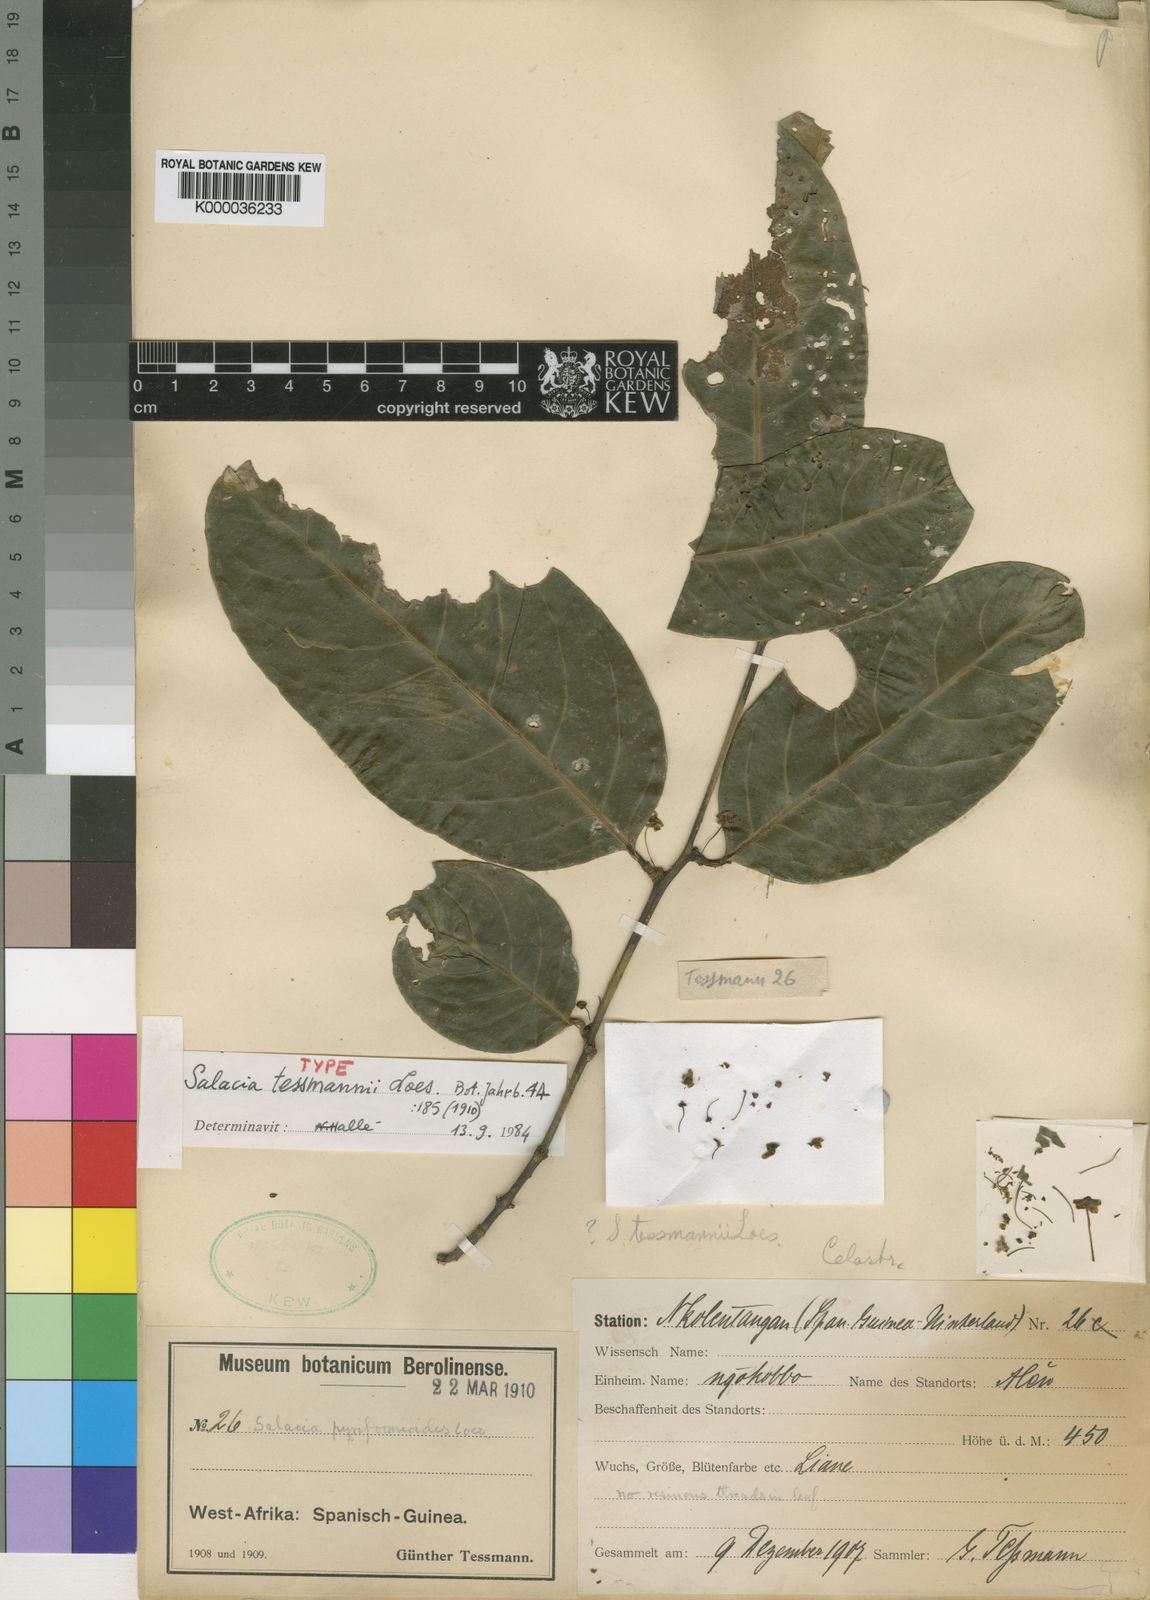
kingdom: Plantae
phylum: Tracheophyta
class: Magnoliopsida
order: Celastrales
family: Celastraceae
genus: Salacia
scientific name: Salacia tessmannii
